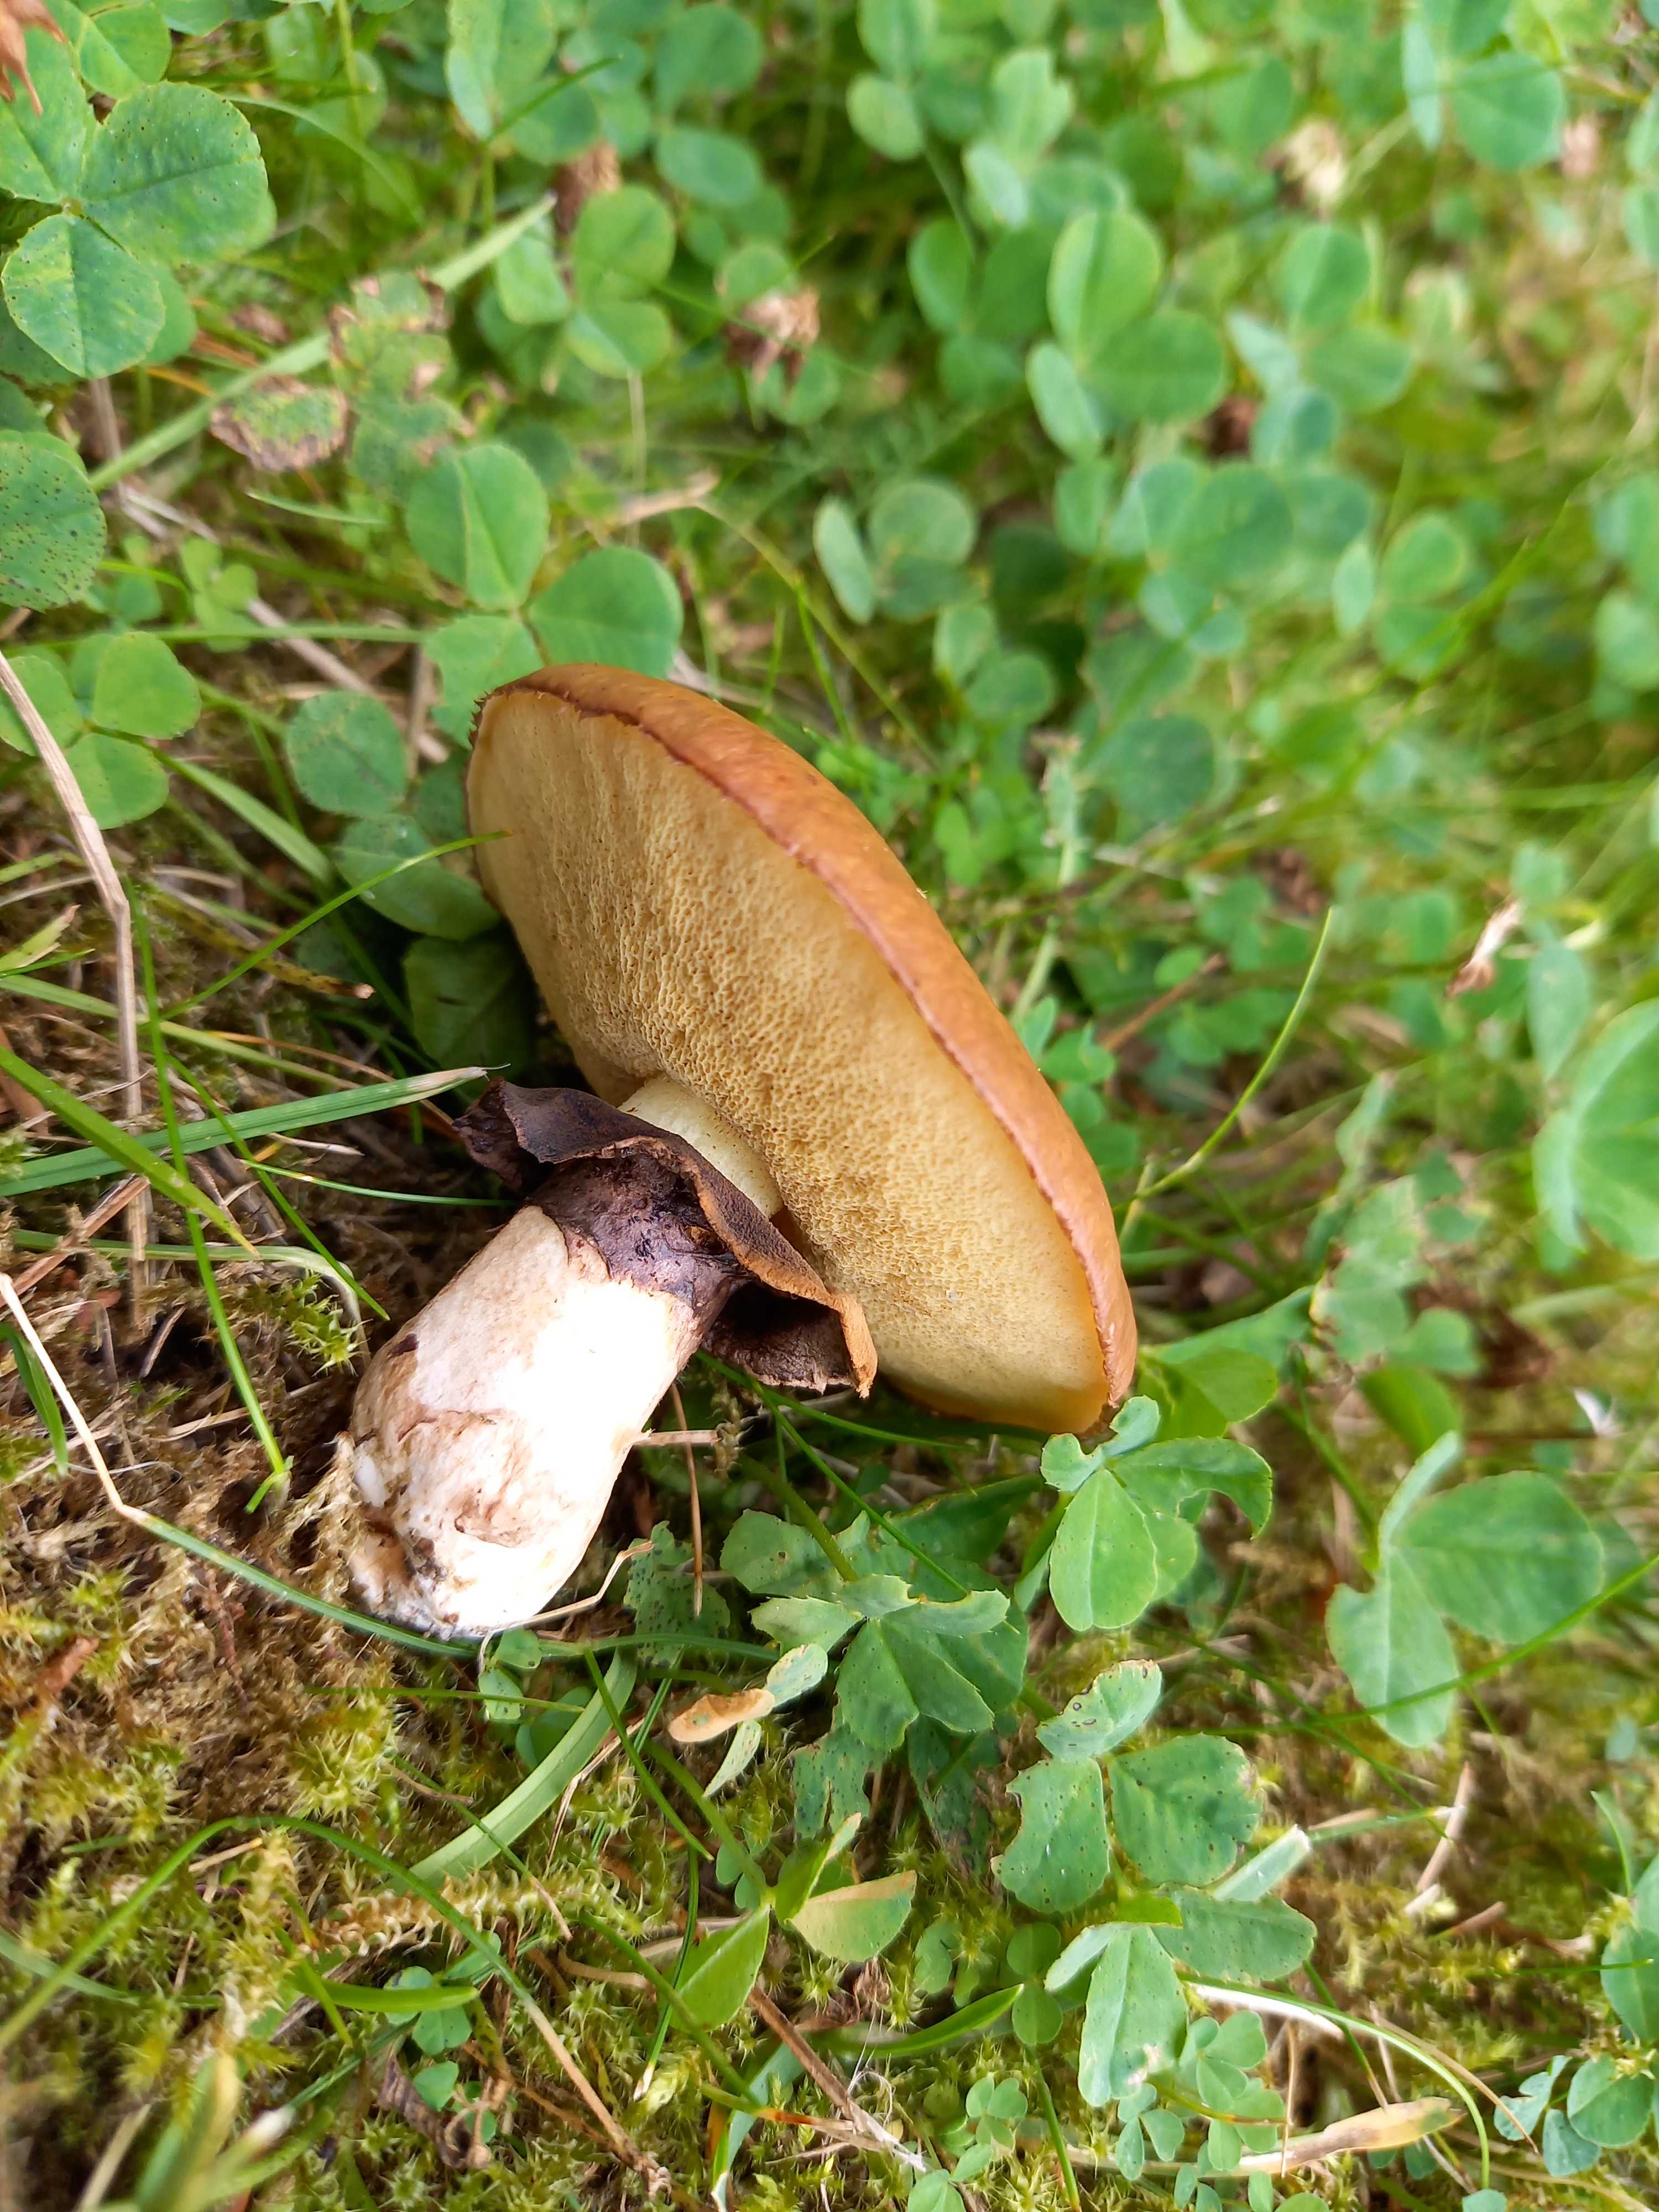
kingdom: Fungi
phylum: Basidiomycota
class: Agaricomycetes
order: Boletales
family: Suillaceae
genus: Suillus
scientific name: Suillus luteus
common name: brungul slimrørhat
